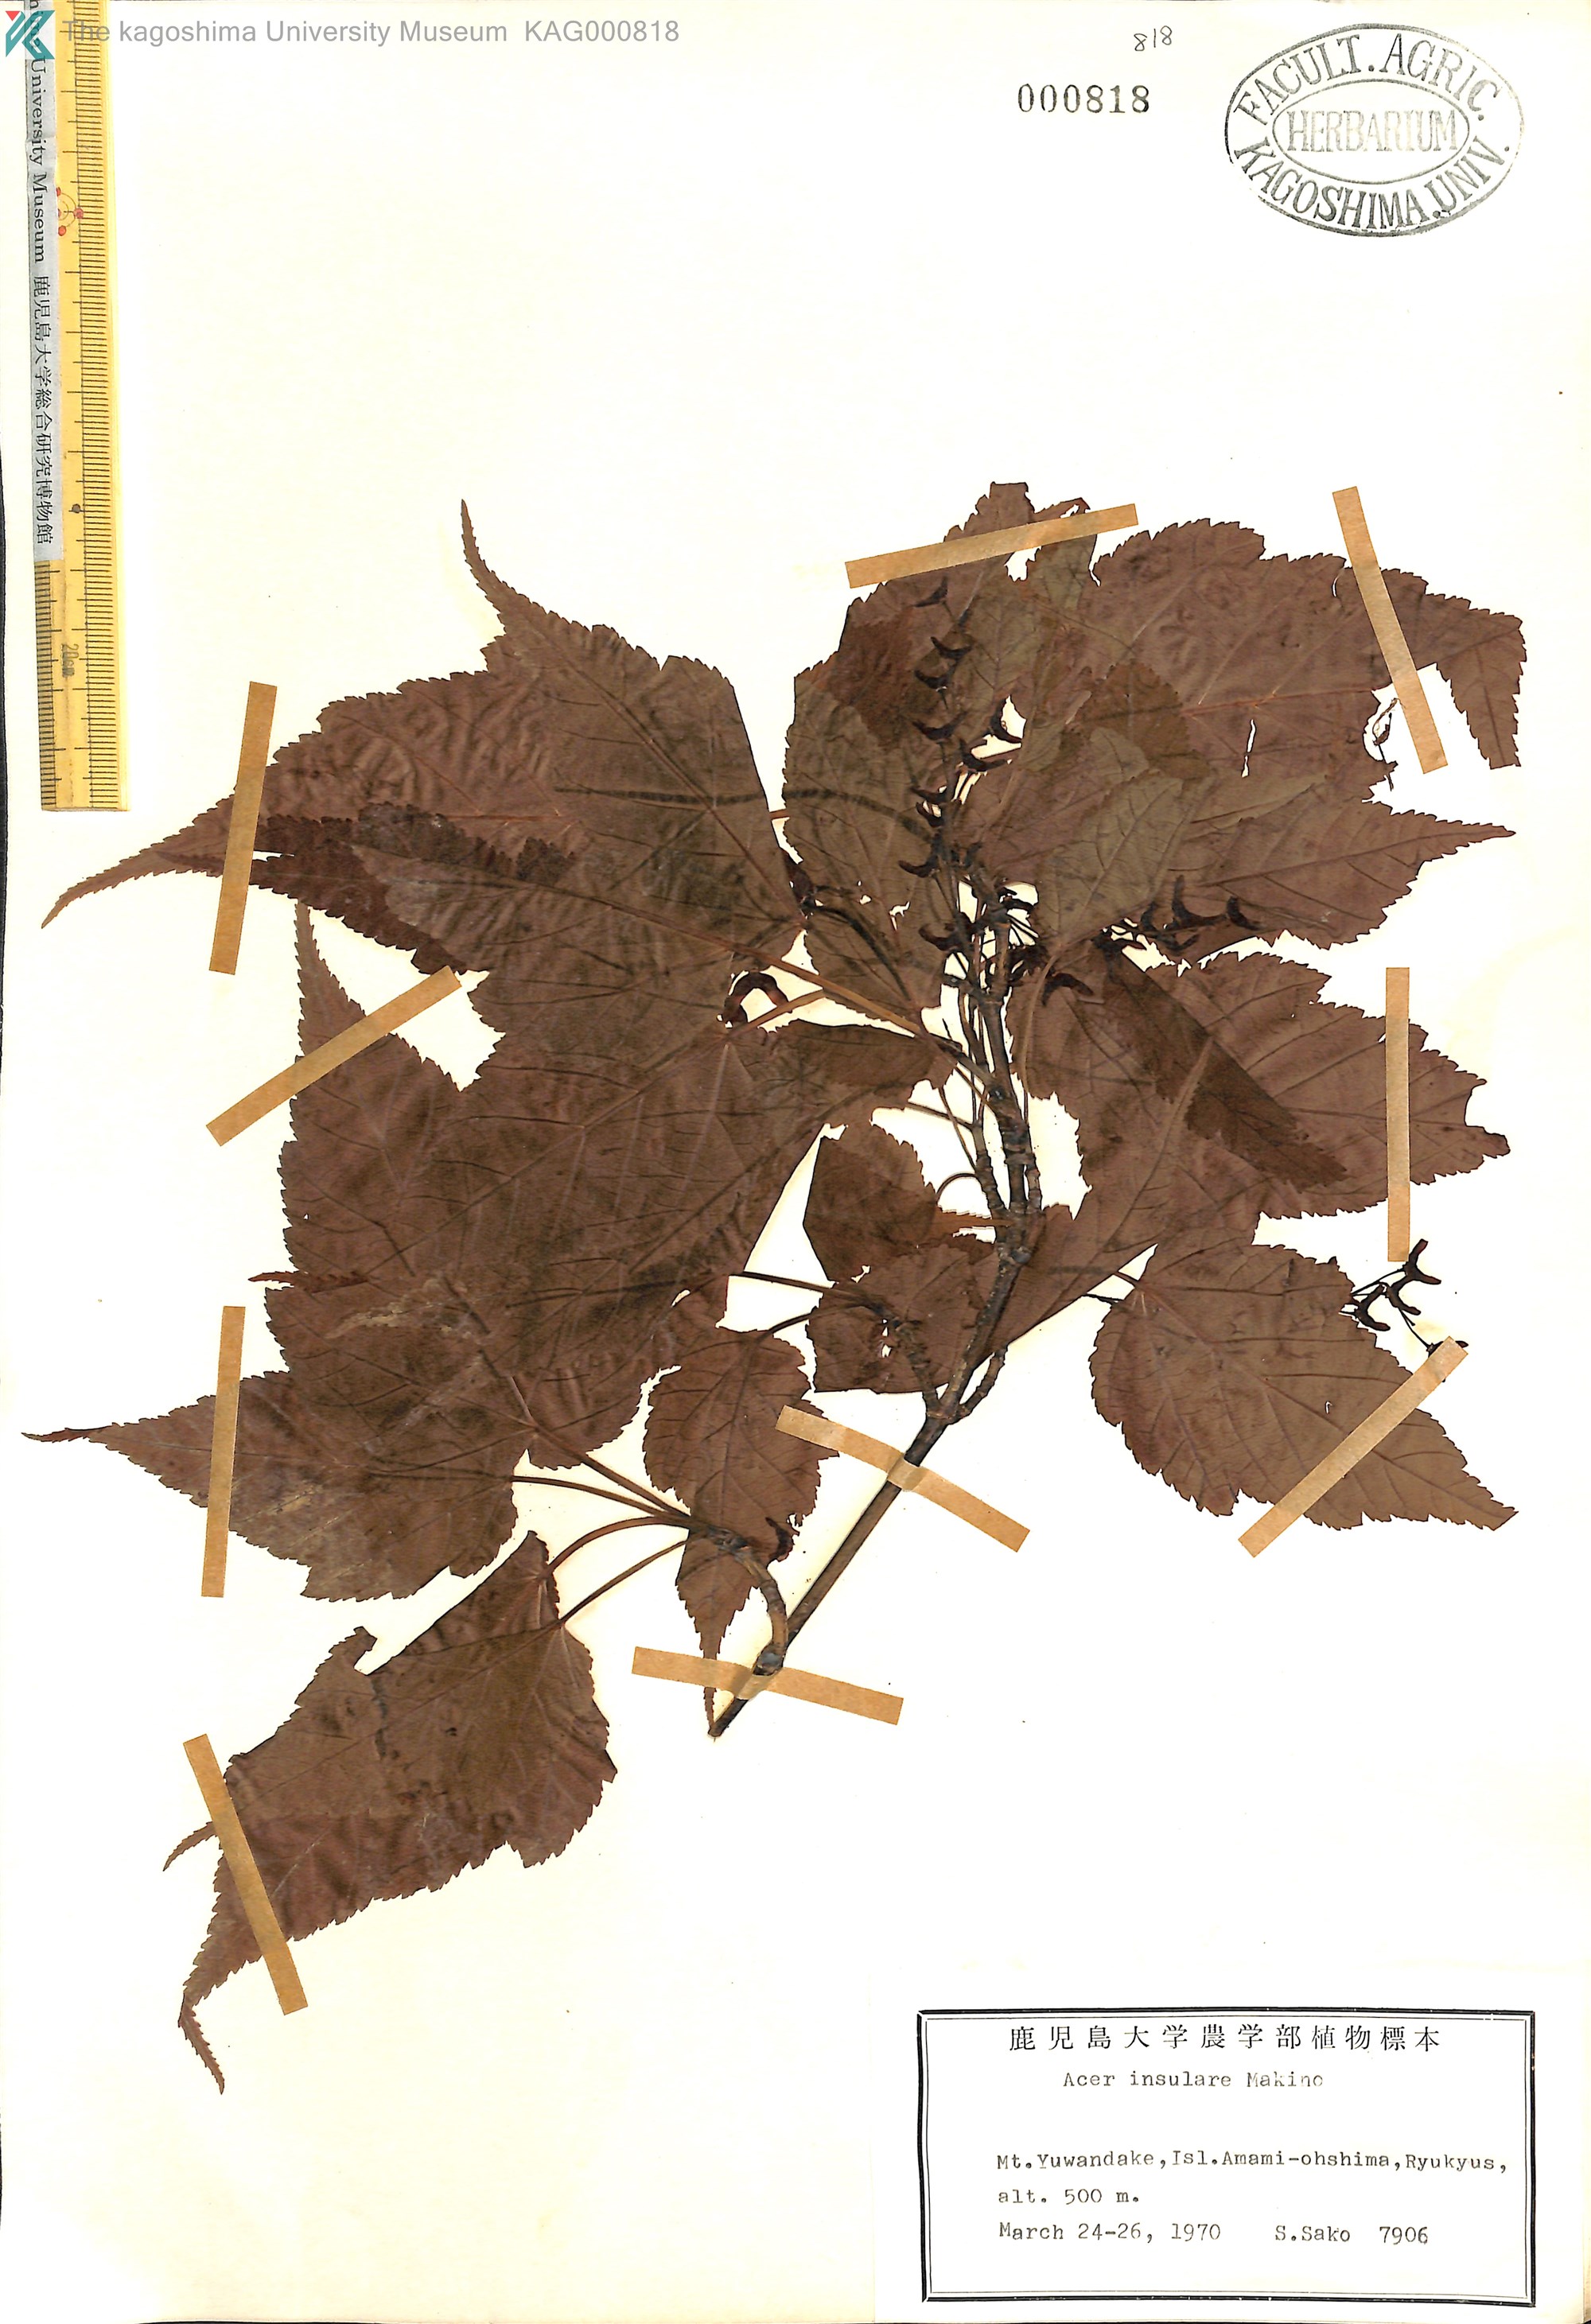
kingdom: Plantae
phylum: Tracheophyta
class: Magnoliopsida
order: Sapindales
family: Sapindaceae
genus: Acer
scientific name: Acer caudatifolium
